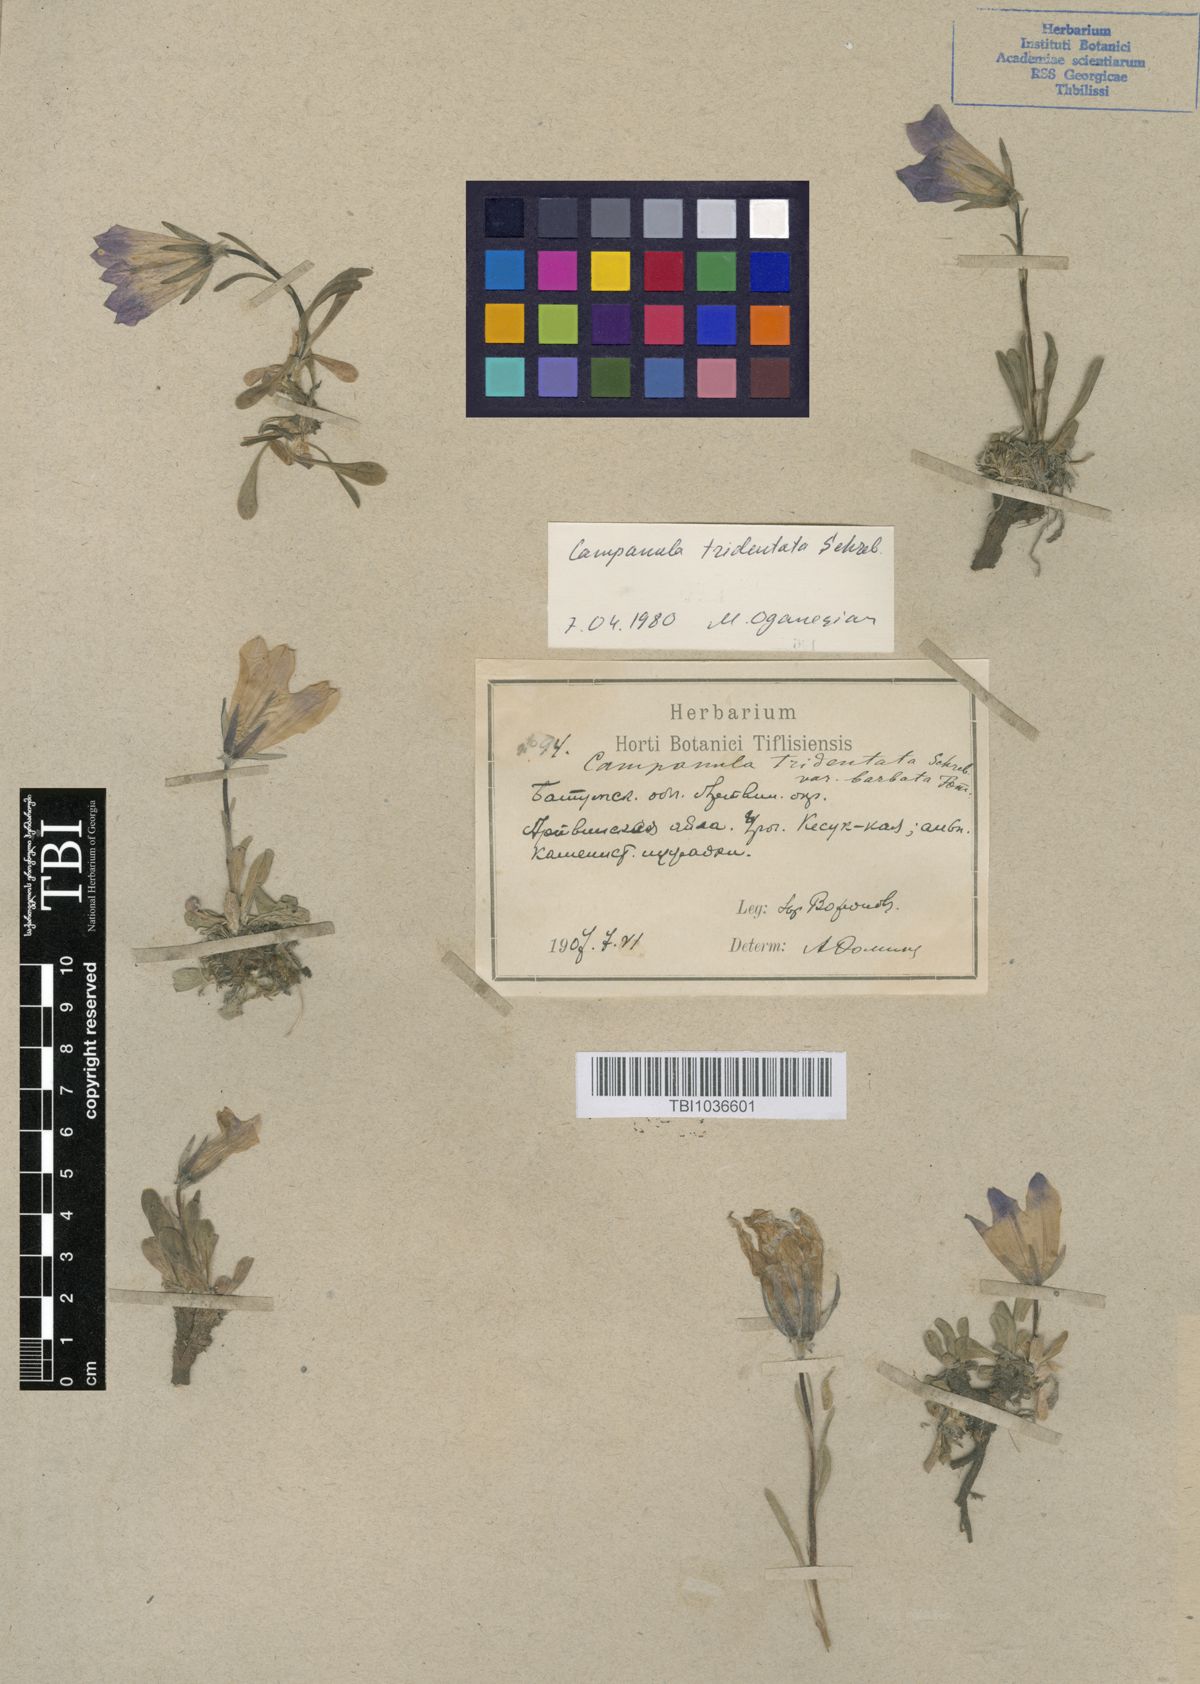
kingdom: Plantae
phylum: Tracheophyta
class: Magnoliopsida
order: Asterales
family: Campanulaceae
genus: Campanula
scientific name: Campanula tridentata
